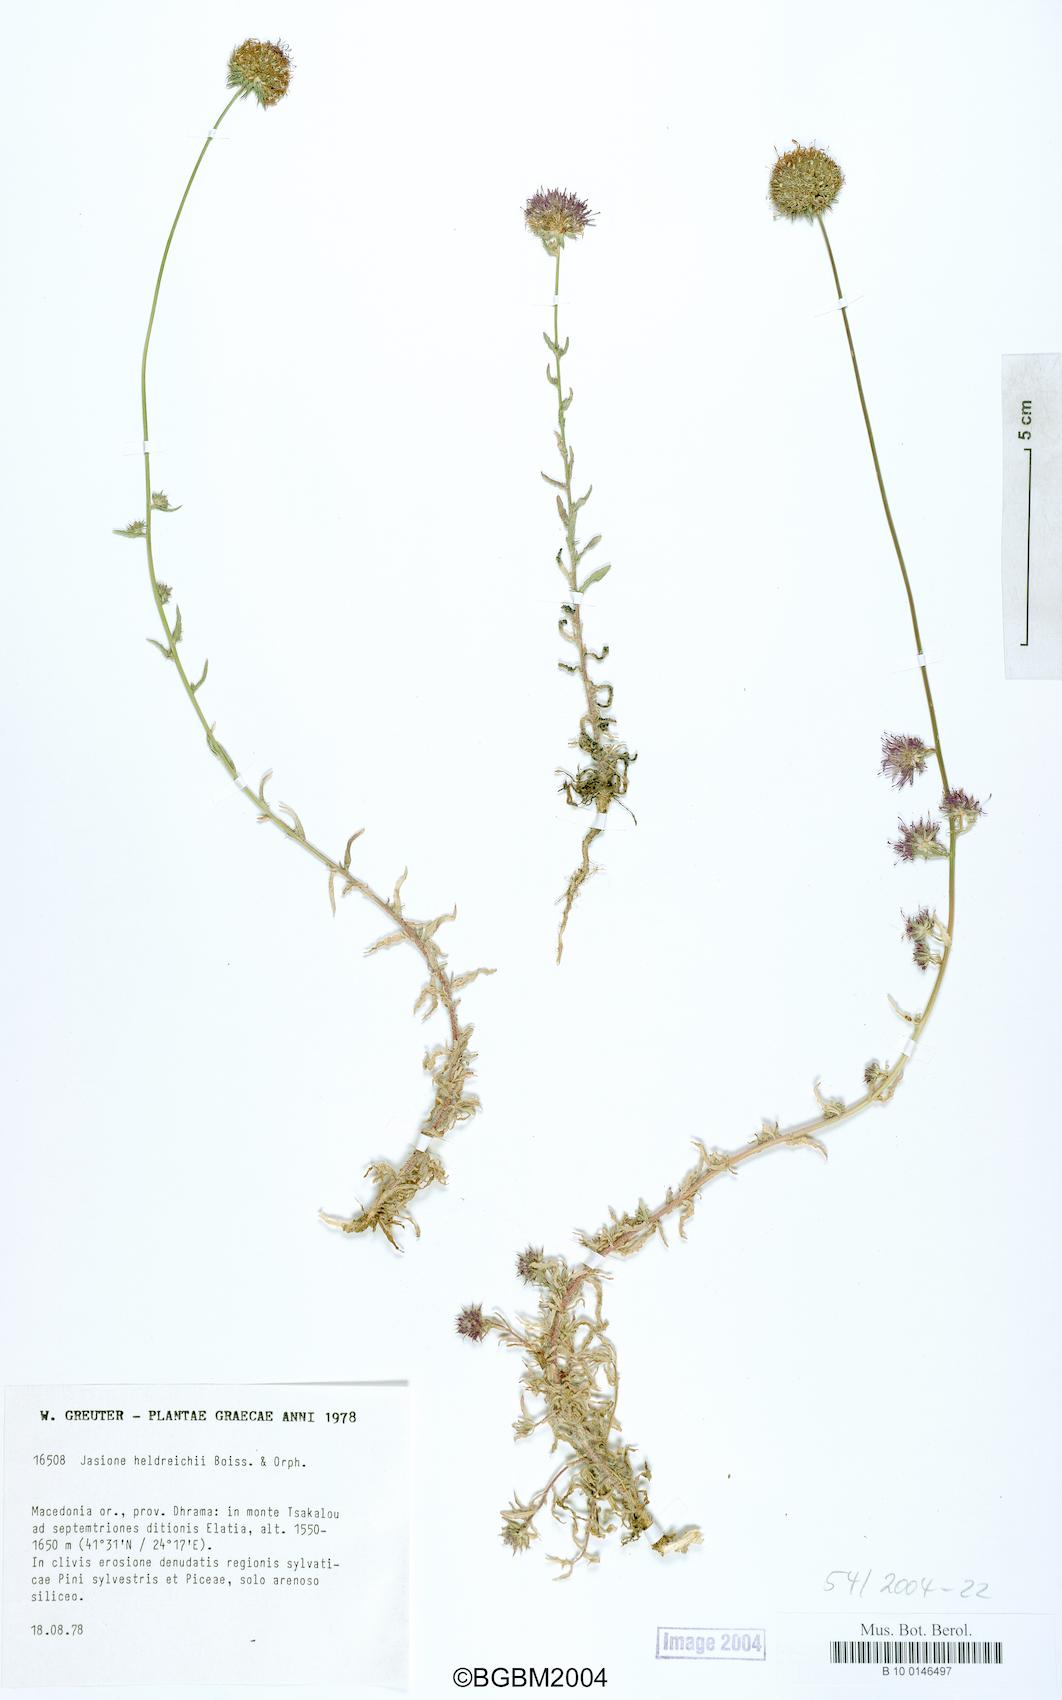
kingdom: Plantae
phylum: Tracheophyta
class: Magnoliopsida
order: Asterales
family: Campanulaceae
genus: Jasione
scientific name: Jasione heldreichii
